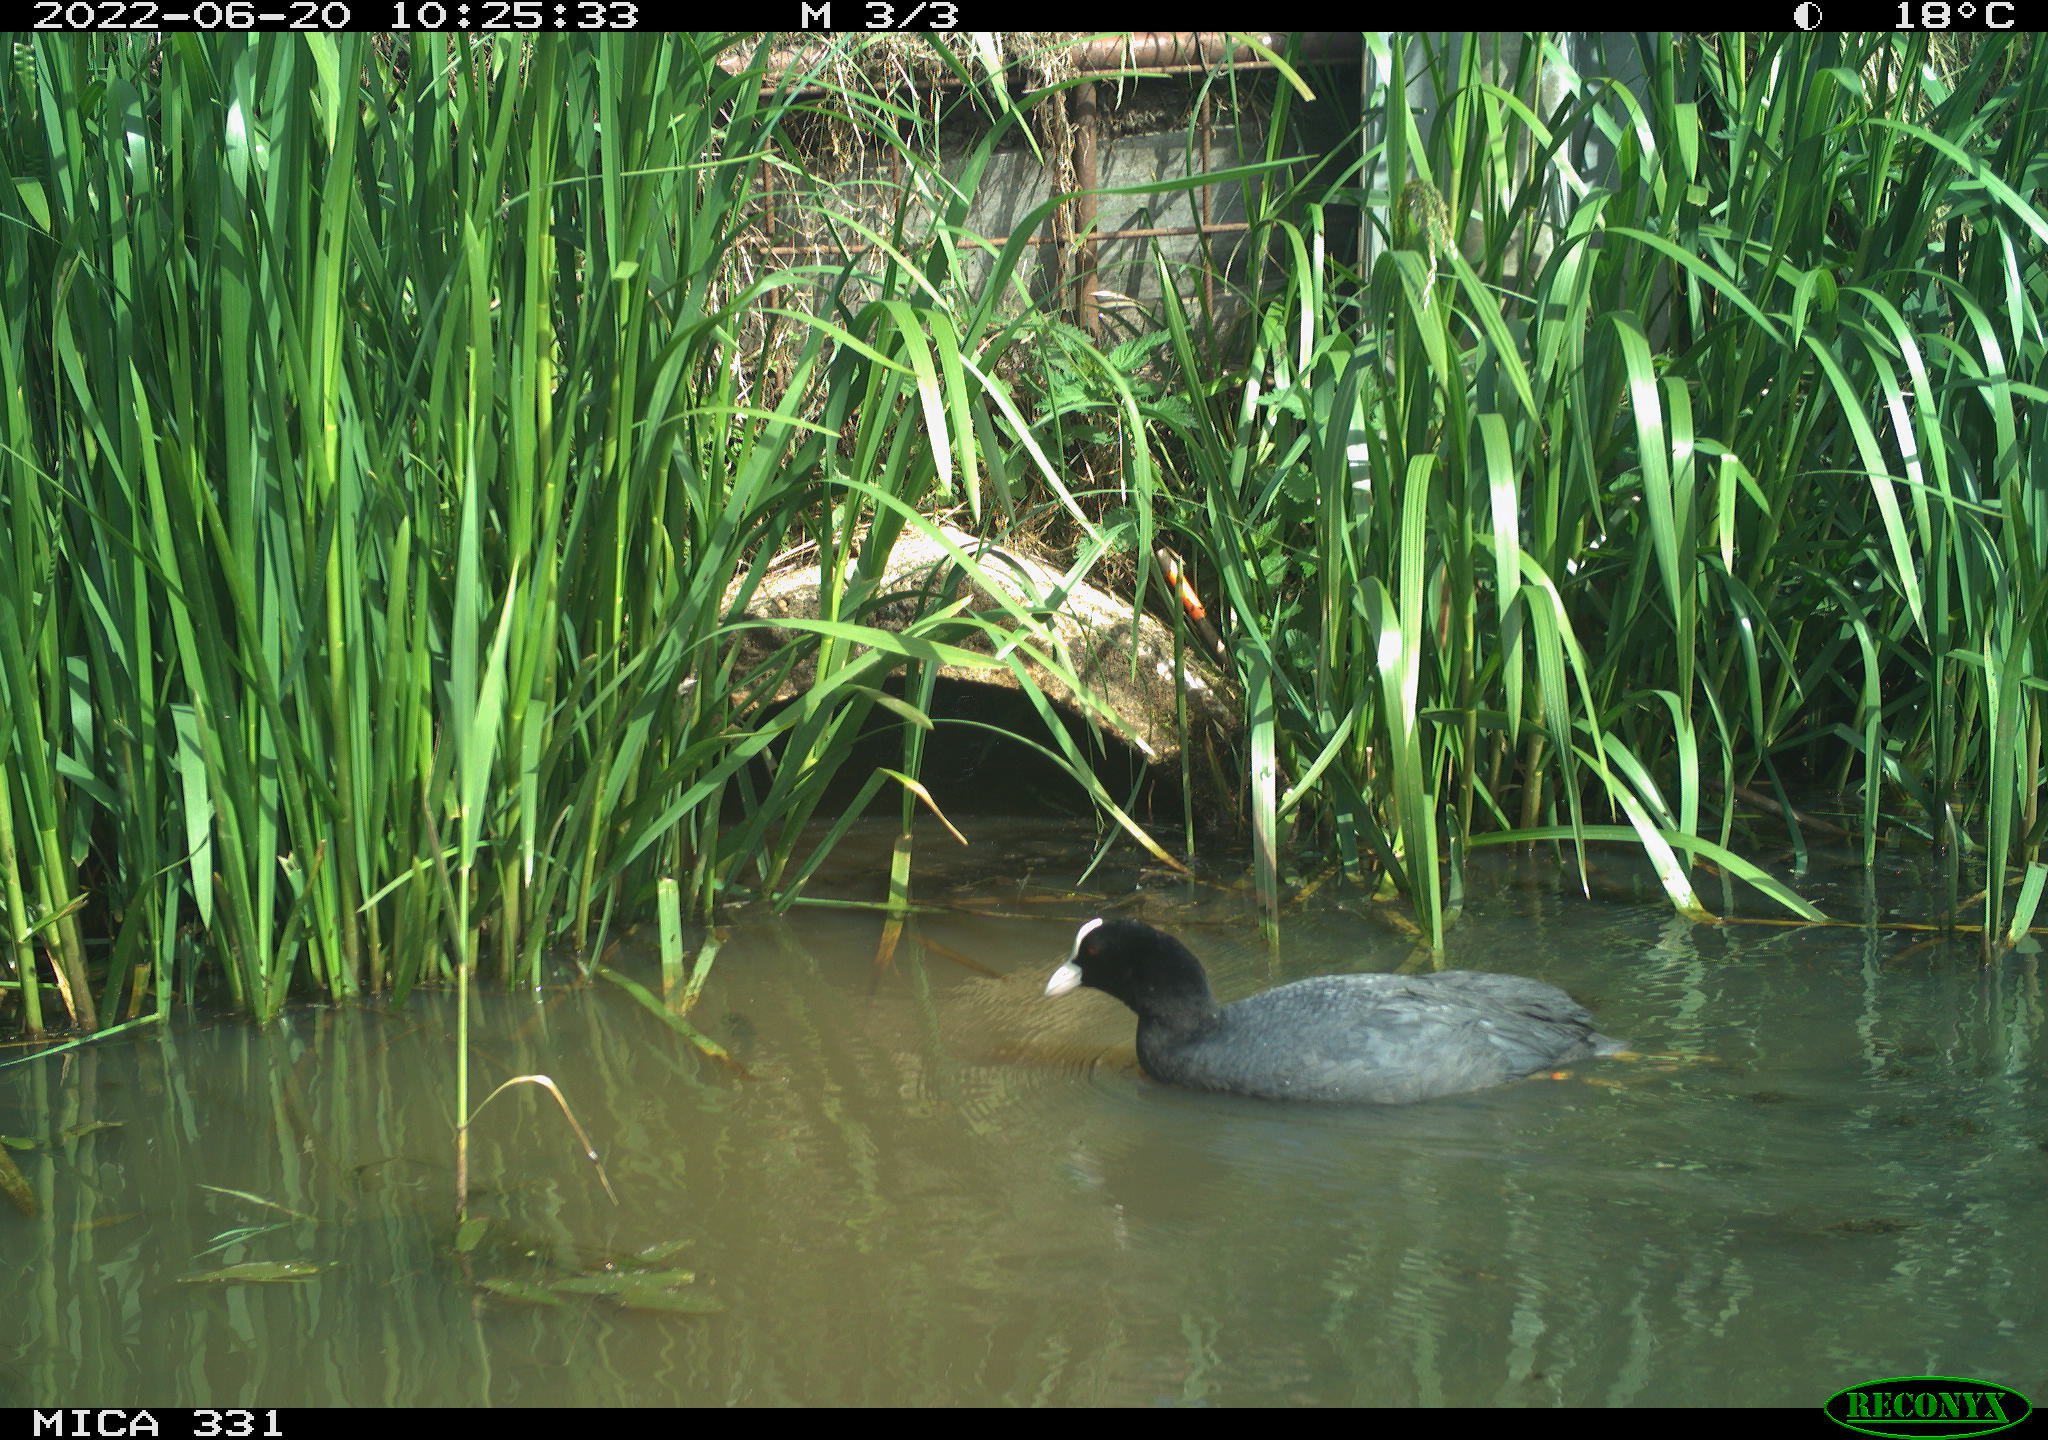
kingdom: Animalia
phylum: Chordata
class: Aves
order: Gruiformes
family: Rallidae
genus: Fulica
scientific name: Fulica atra
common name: Eurasian coot
